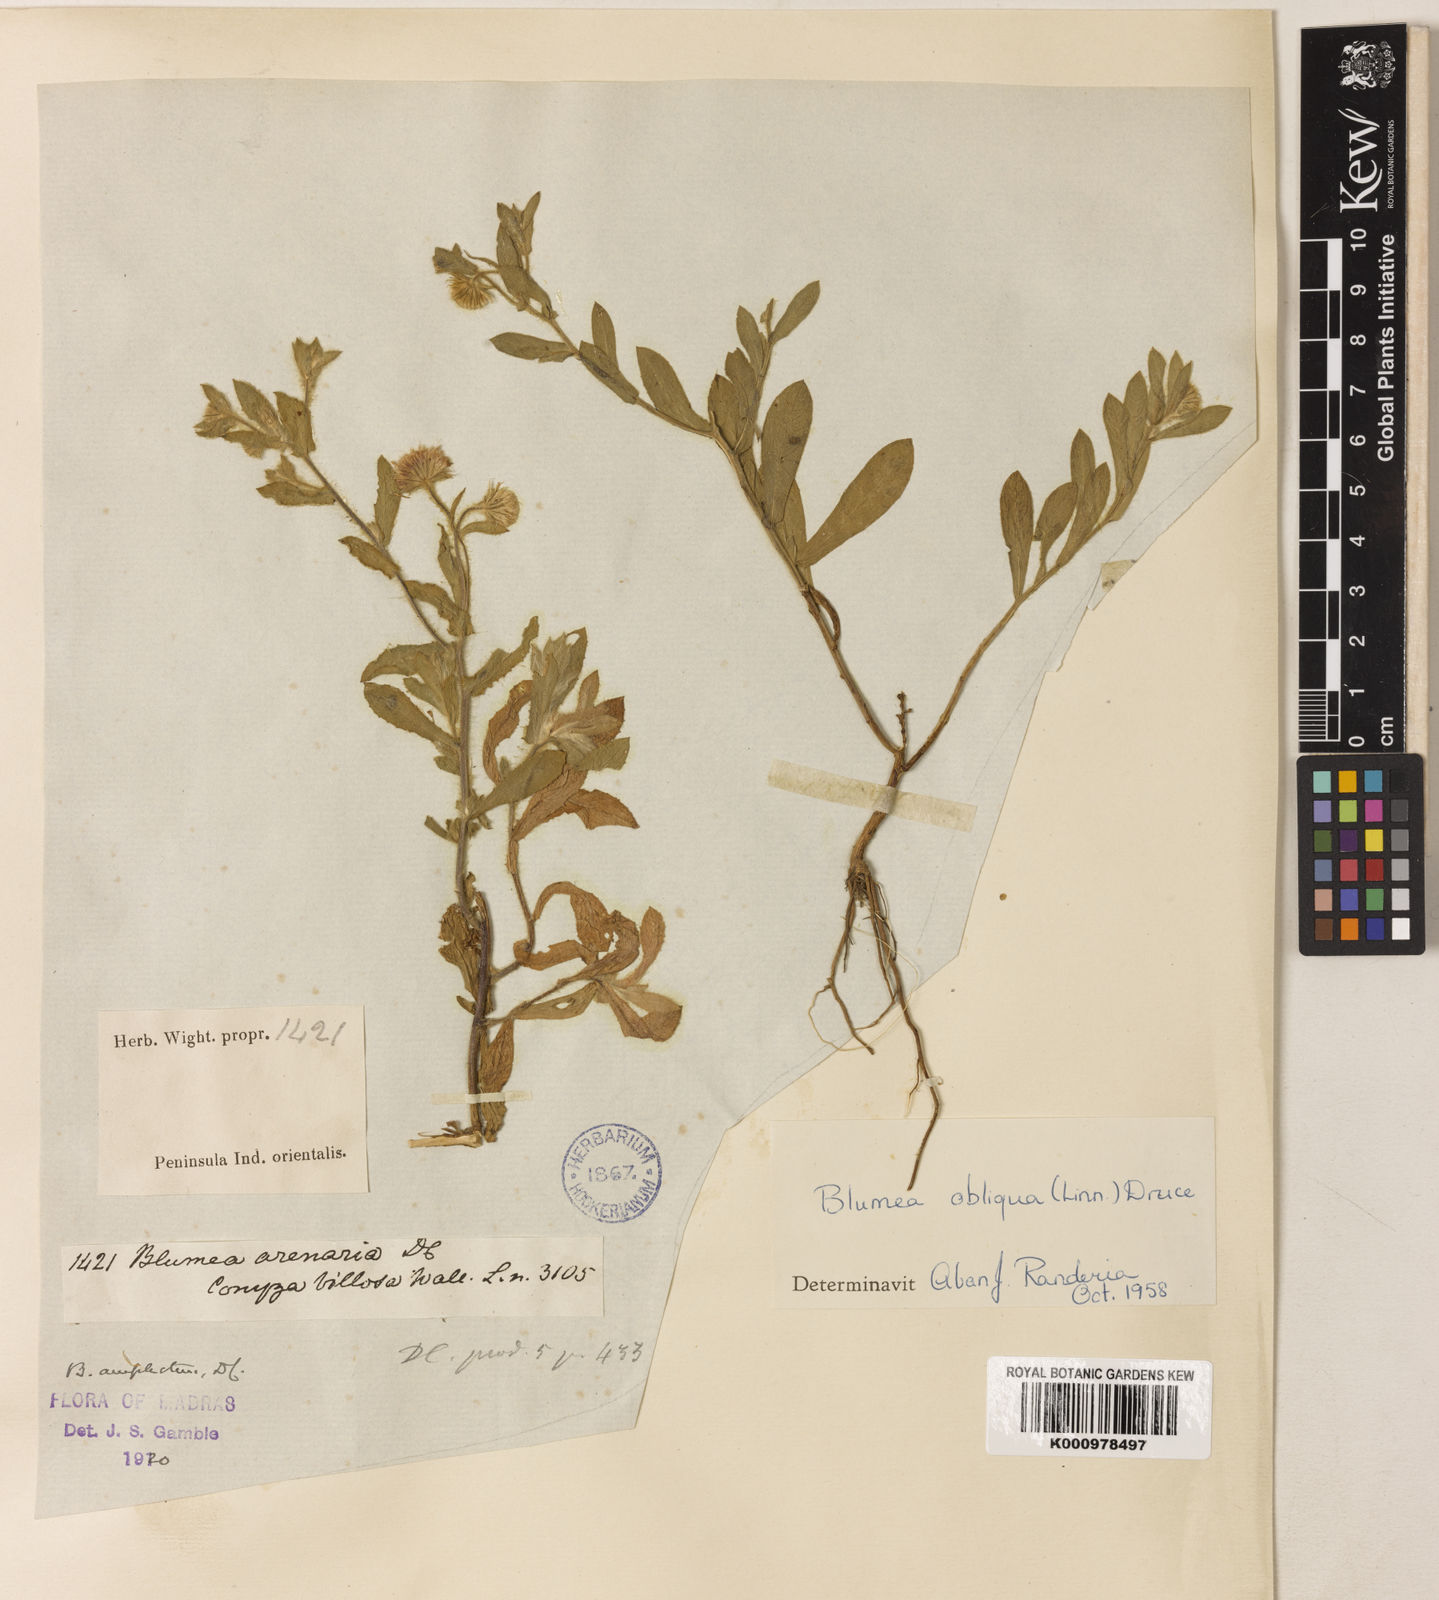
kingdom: Plantae
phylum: Tracheophyta
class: Magnoliopsida
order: Asterales
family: Asteraceae
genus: Blumea
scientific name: Blumea obliqua
